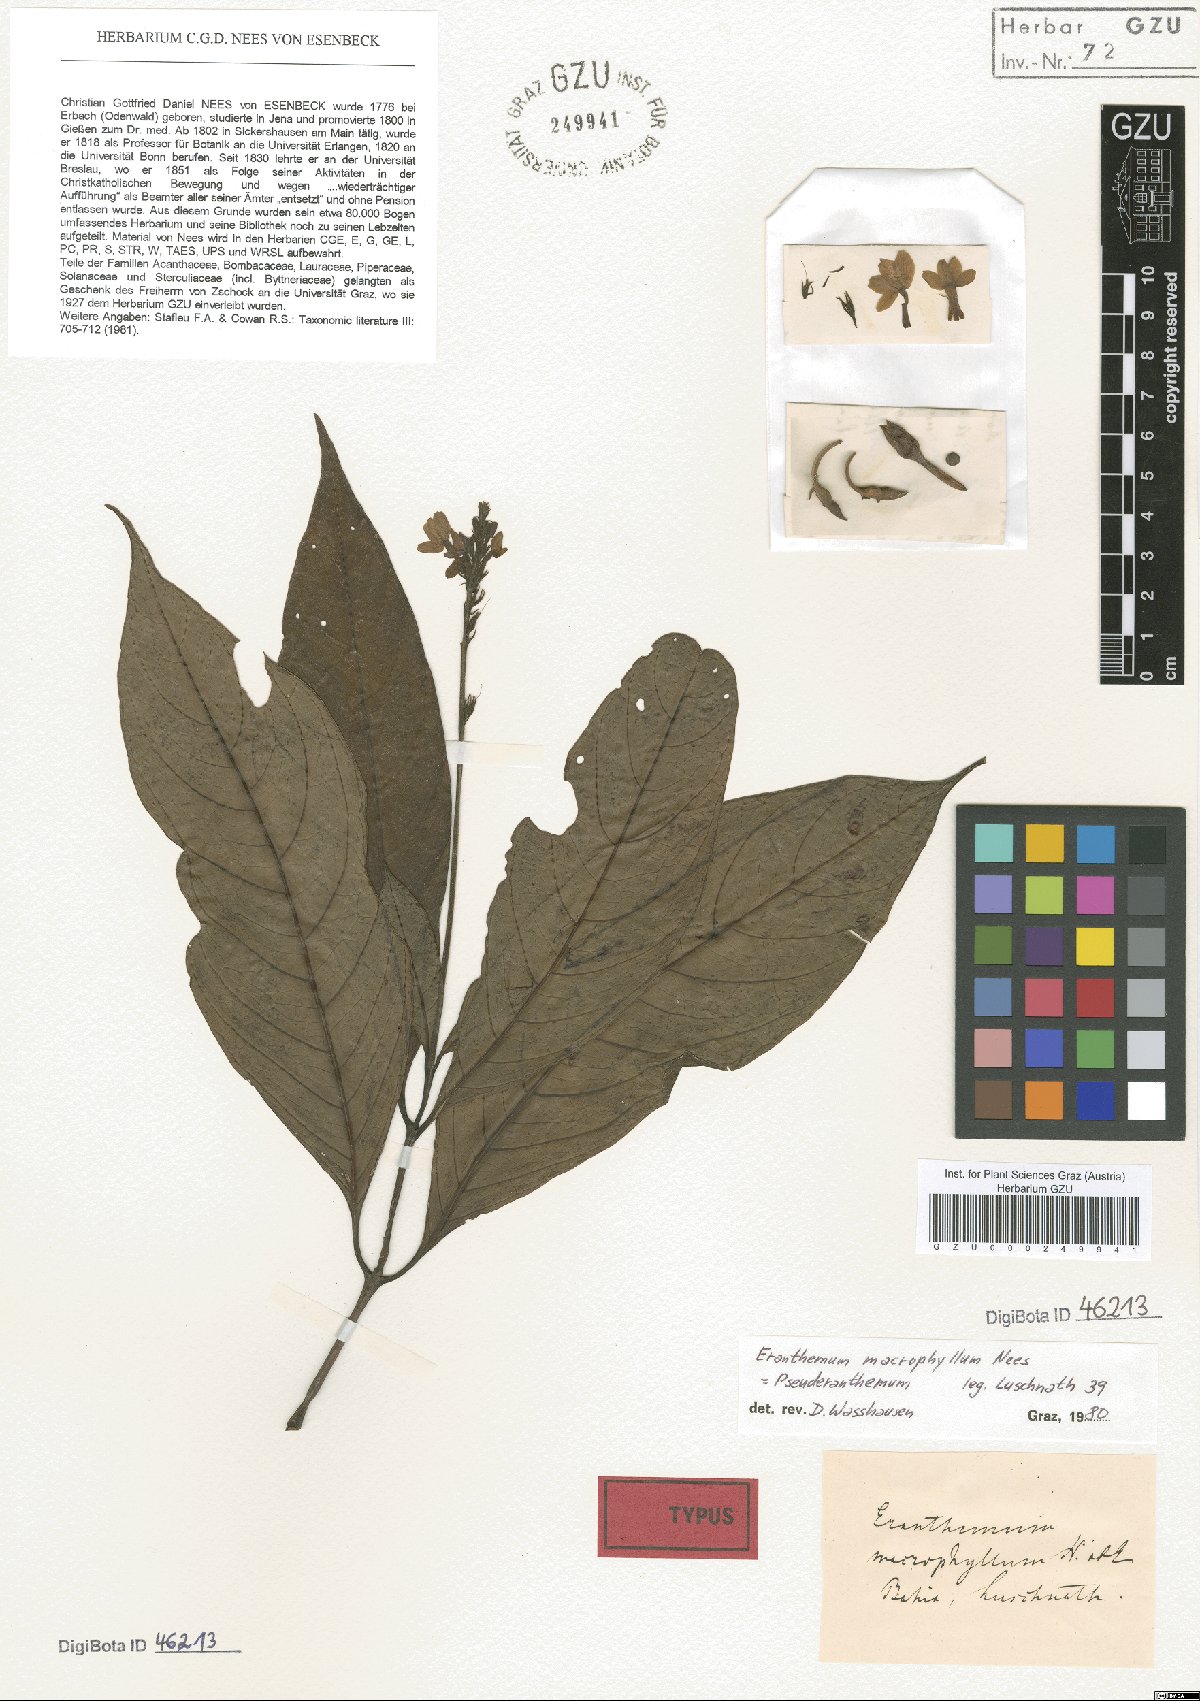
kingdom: Plantae
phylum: Tracheophyta
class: Magnoliopsida
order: Lamiales
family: Acanthaceae
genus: Pseuderanthemum
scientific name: Pseuderanthemum macrophyllum
